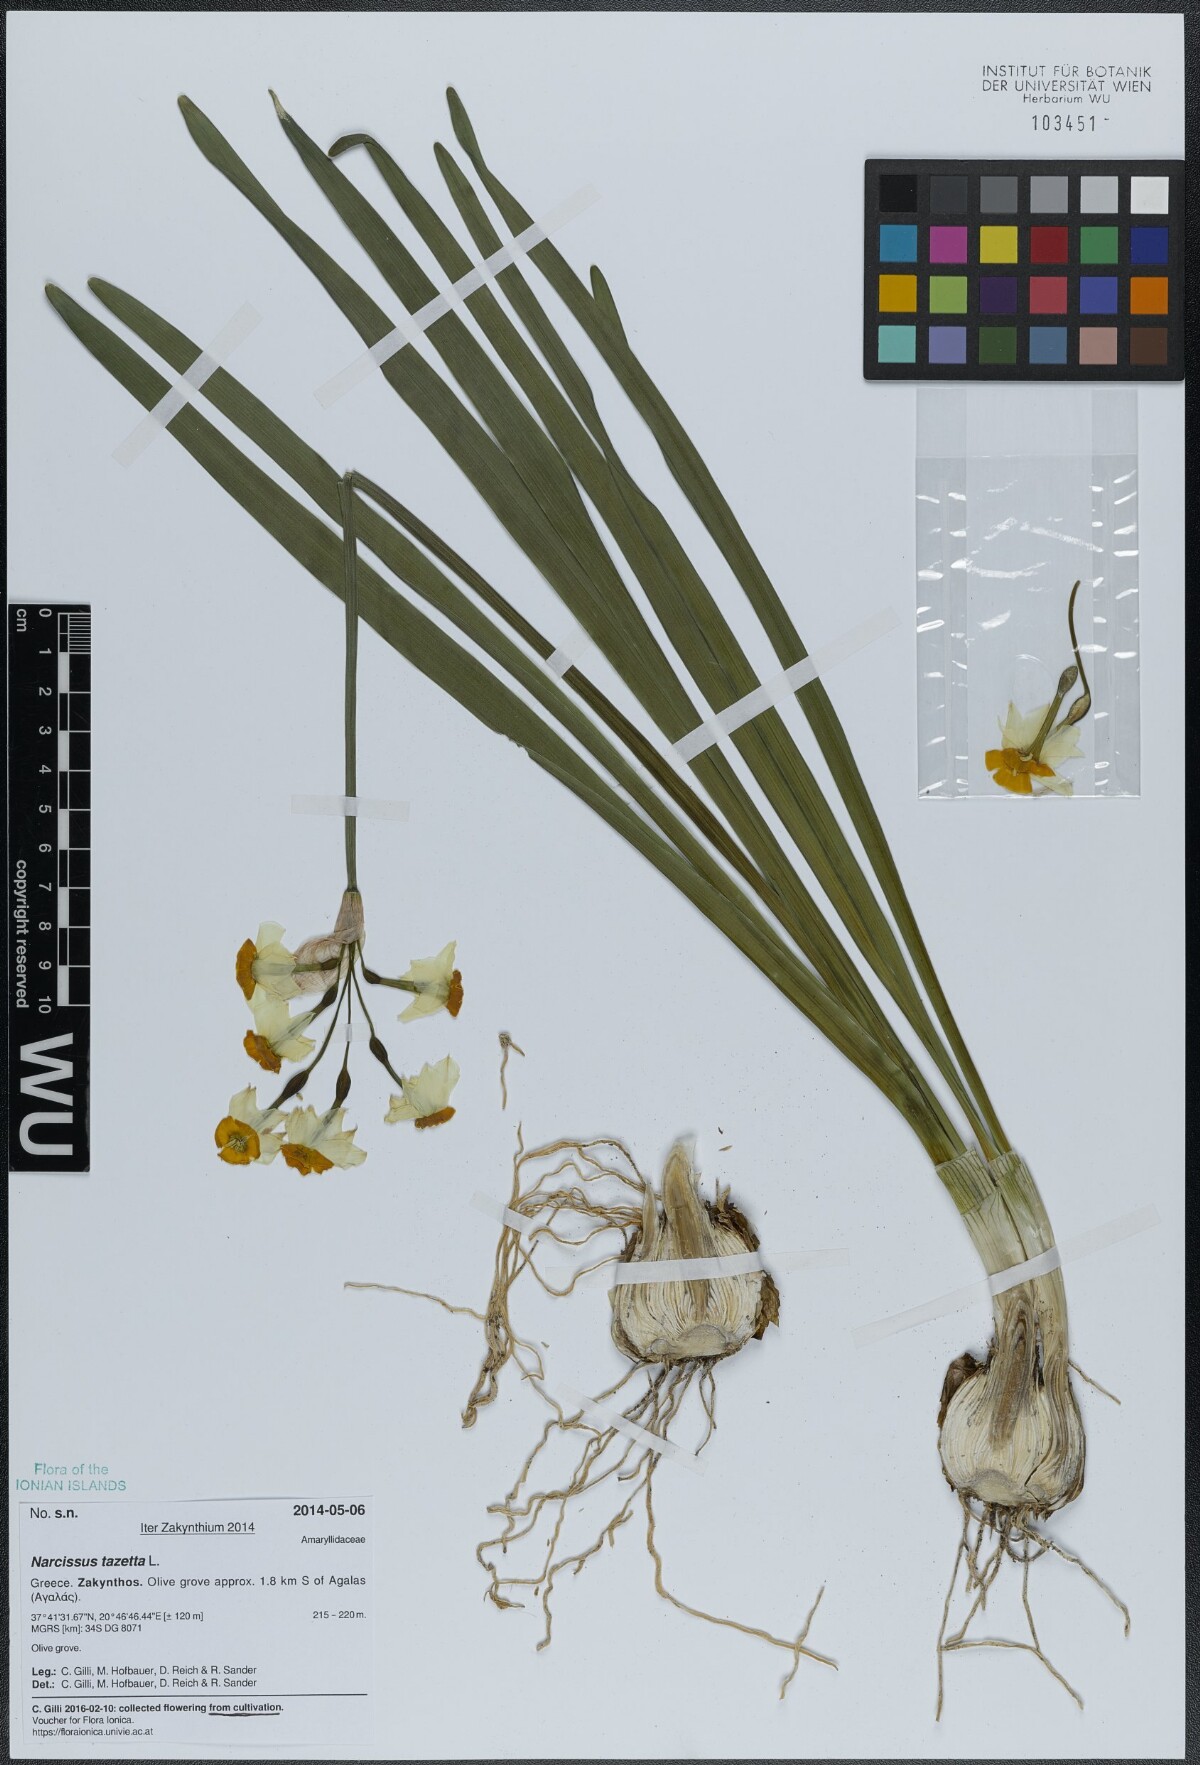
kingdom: Plantae
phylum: Tracheophyta
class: Liliopsida
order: Asparagales
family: Amaryllidaceae
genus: Narcissus
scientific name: Narcissus tazetta
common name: Bunch-flowered daffodil
